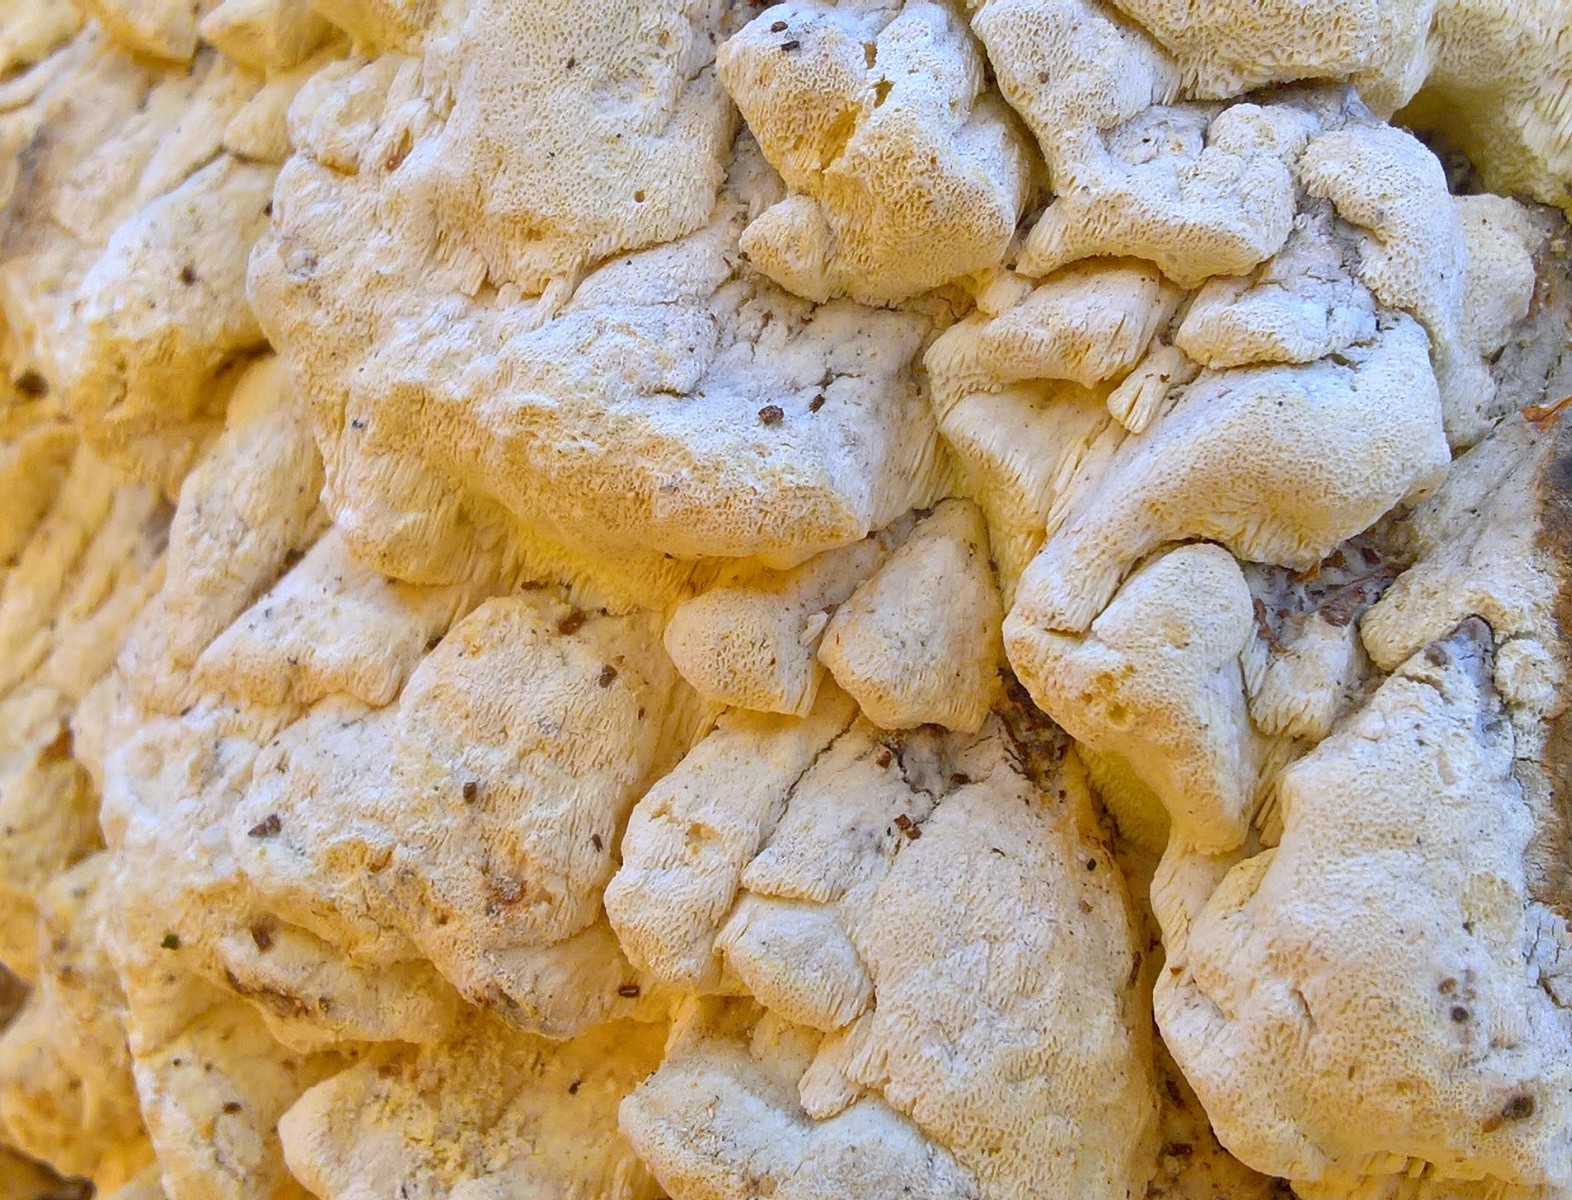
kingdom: Fungi
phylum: Basidiomycota
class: Agaricomycetes
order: Polyporales
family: Fomitopsidaceae
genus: Daedalea
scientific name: Daedalea xantha
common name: gul sejporesvamp
